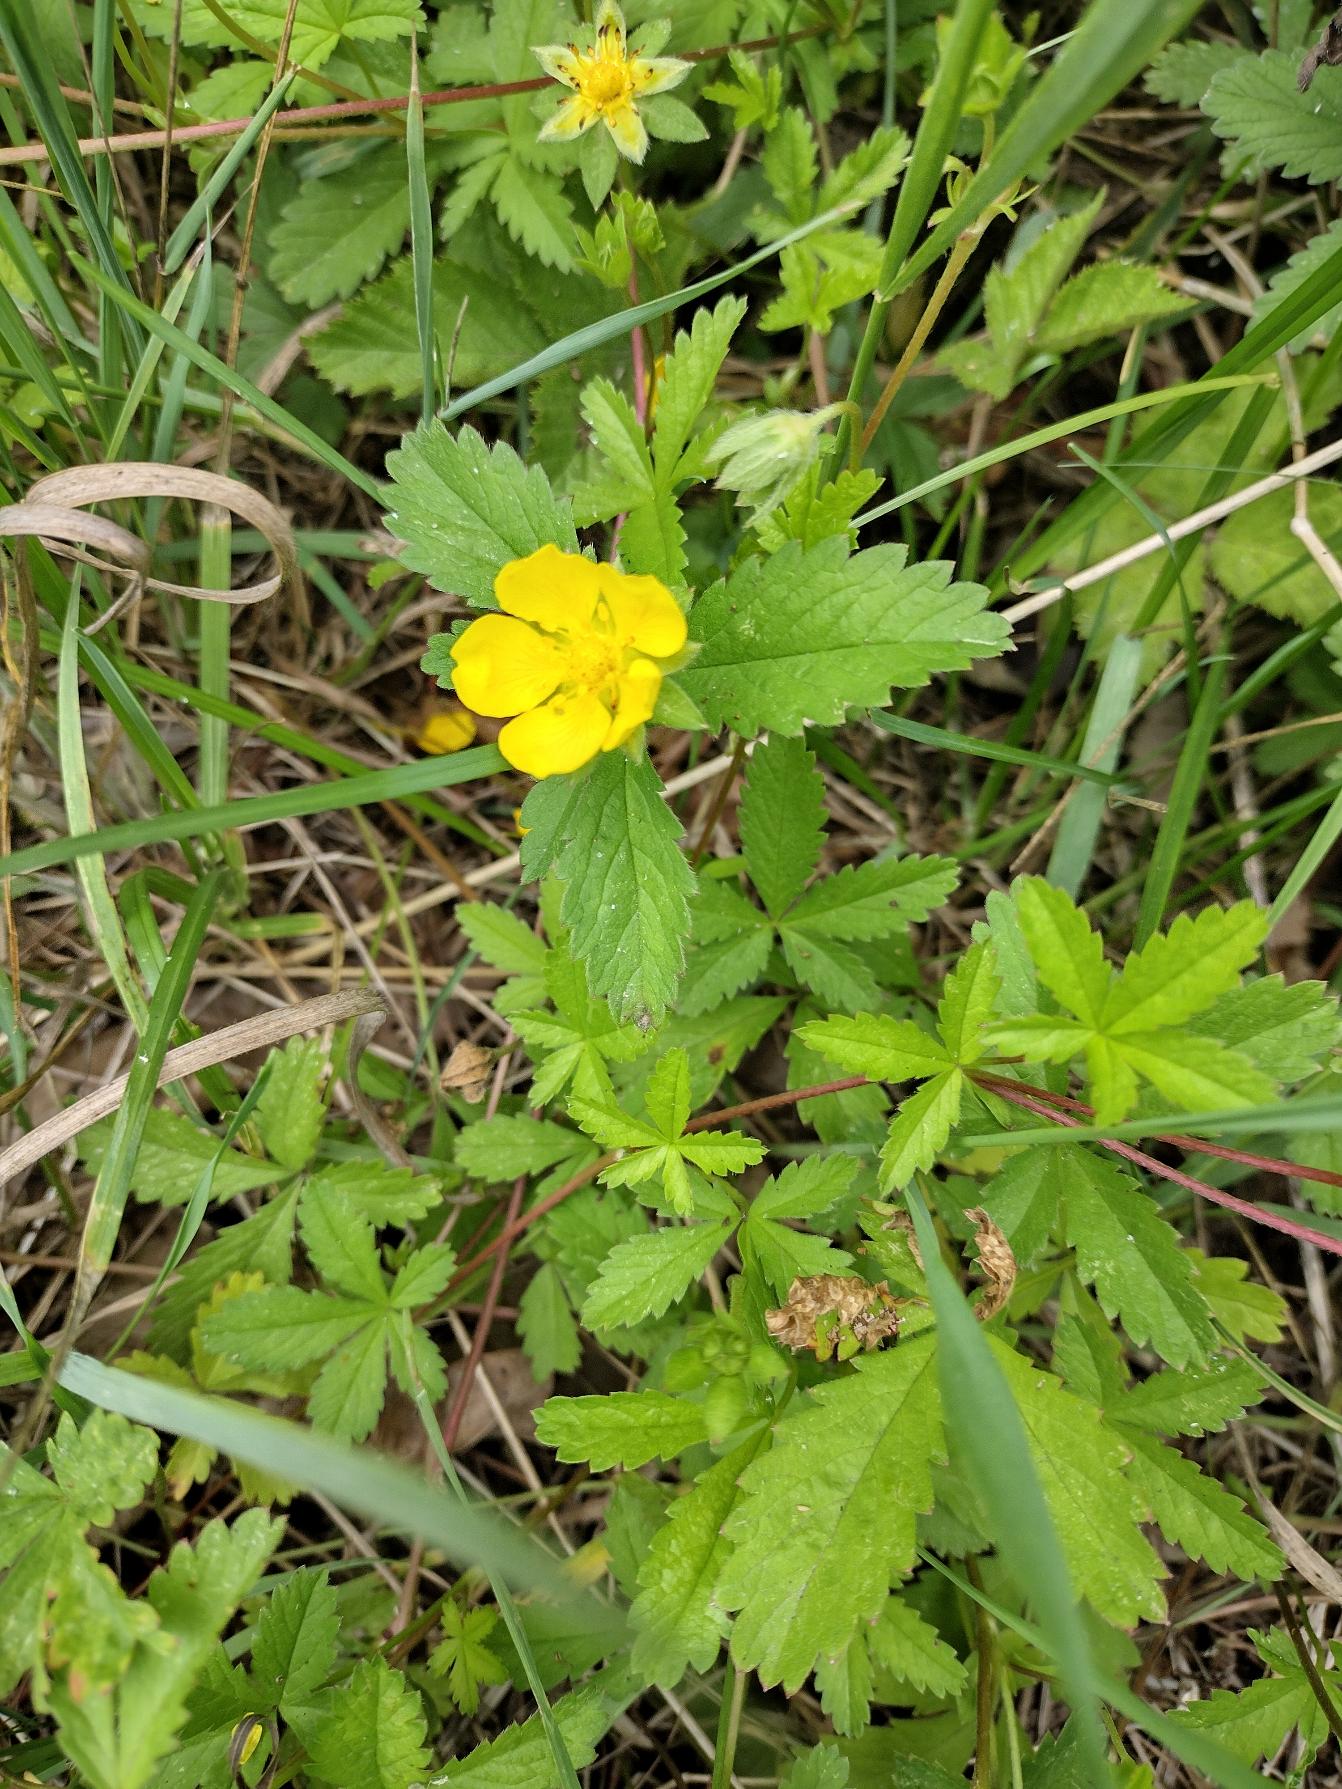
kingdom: Plantae
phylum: Tracheophyta
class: Magnoliopsida
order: Rosales
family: Rosaceae
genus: Potentilla
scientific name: Potentilla reptans
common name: Krybende potentil
